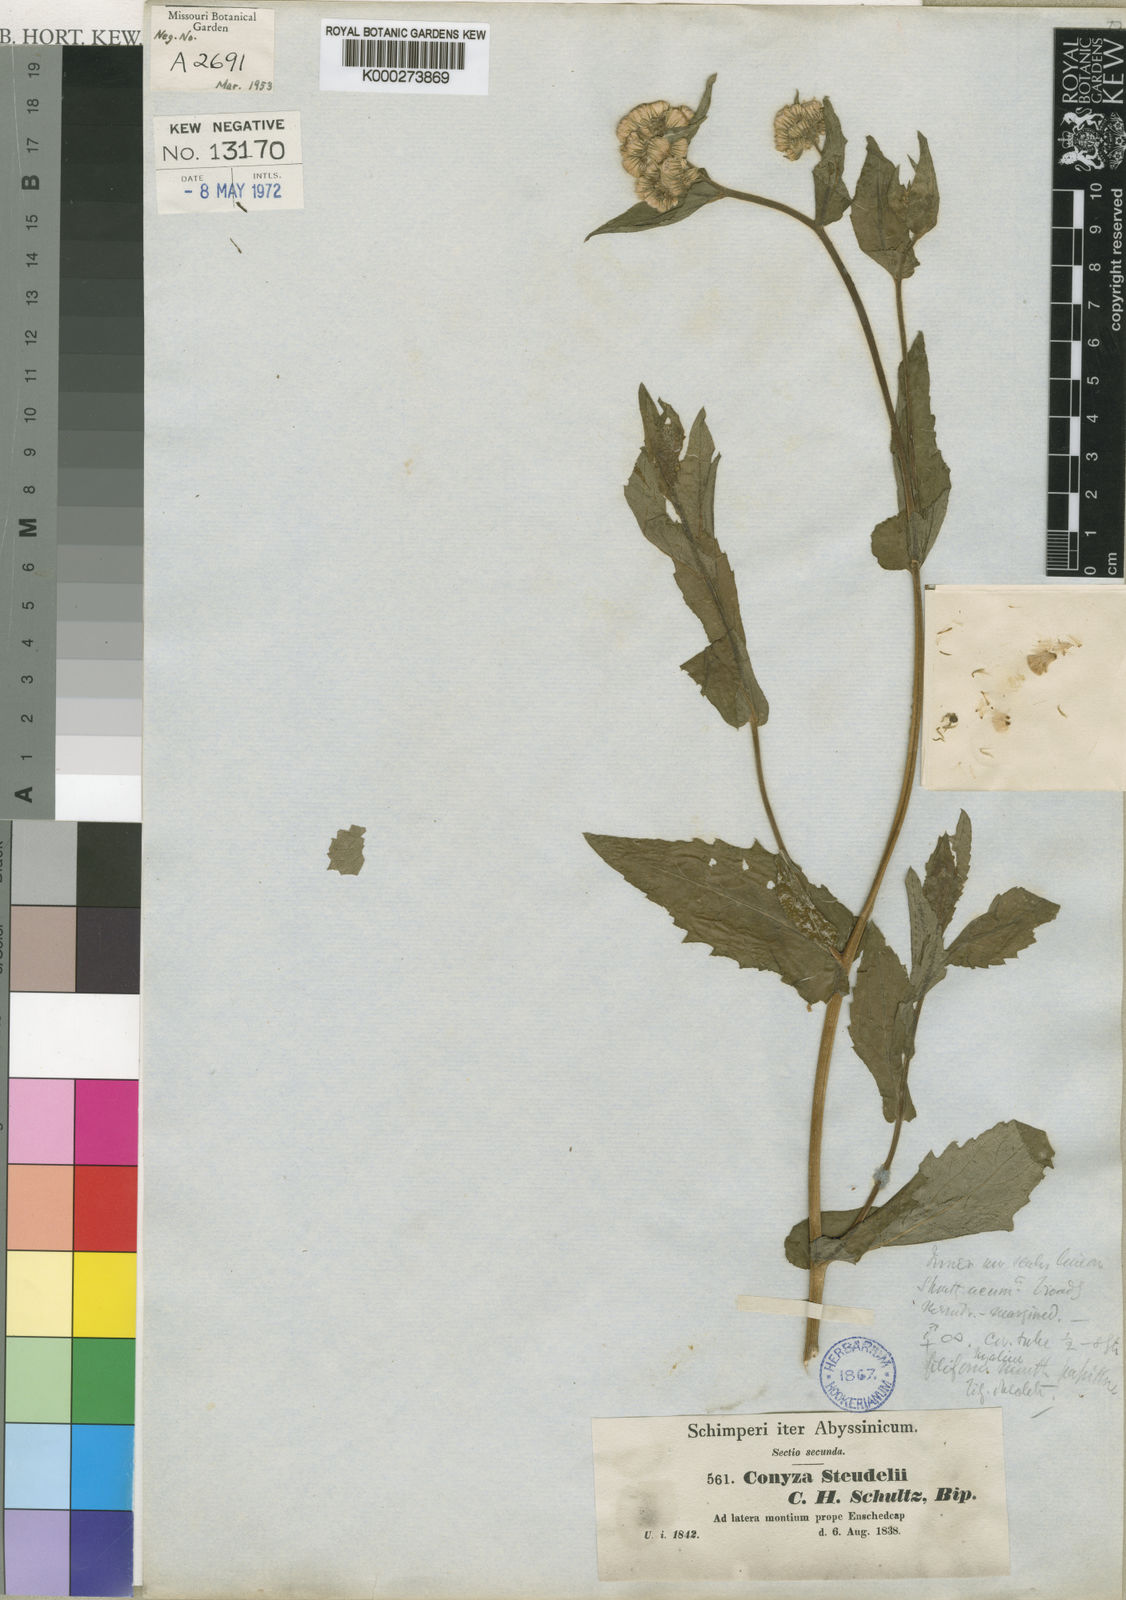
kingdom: Plantae
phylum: Tracheophyta
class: Magnoliopsida
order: Asterales
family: Asteraceae
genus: Conyza
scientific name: Conyza steudelii
